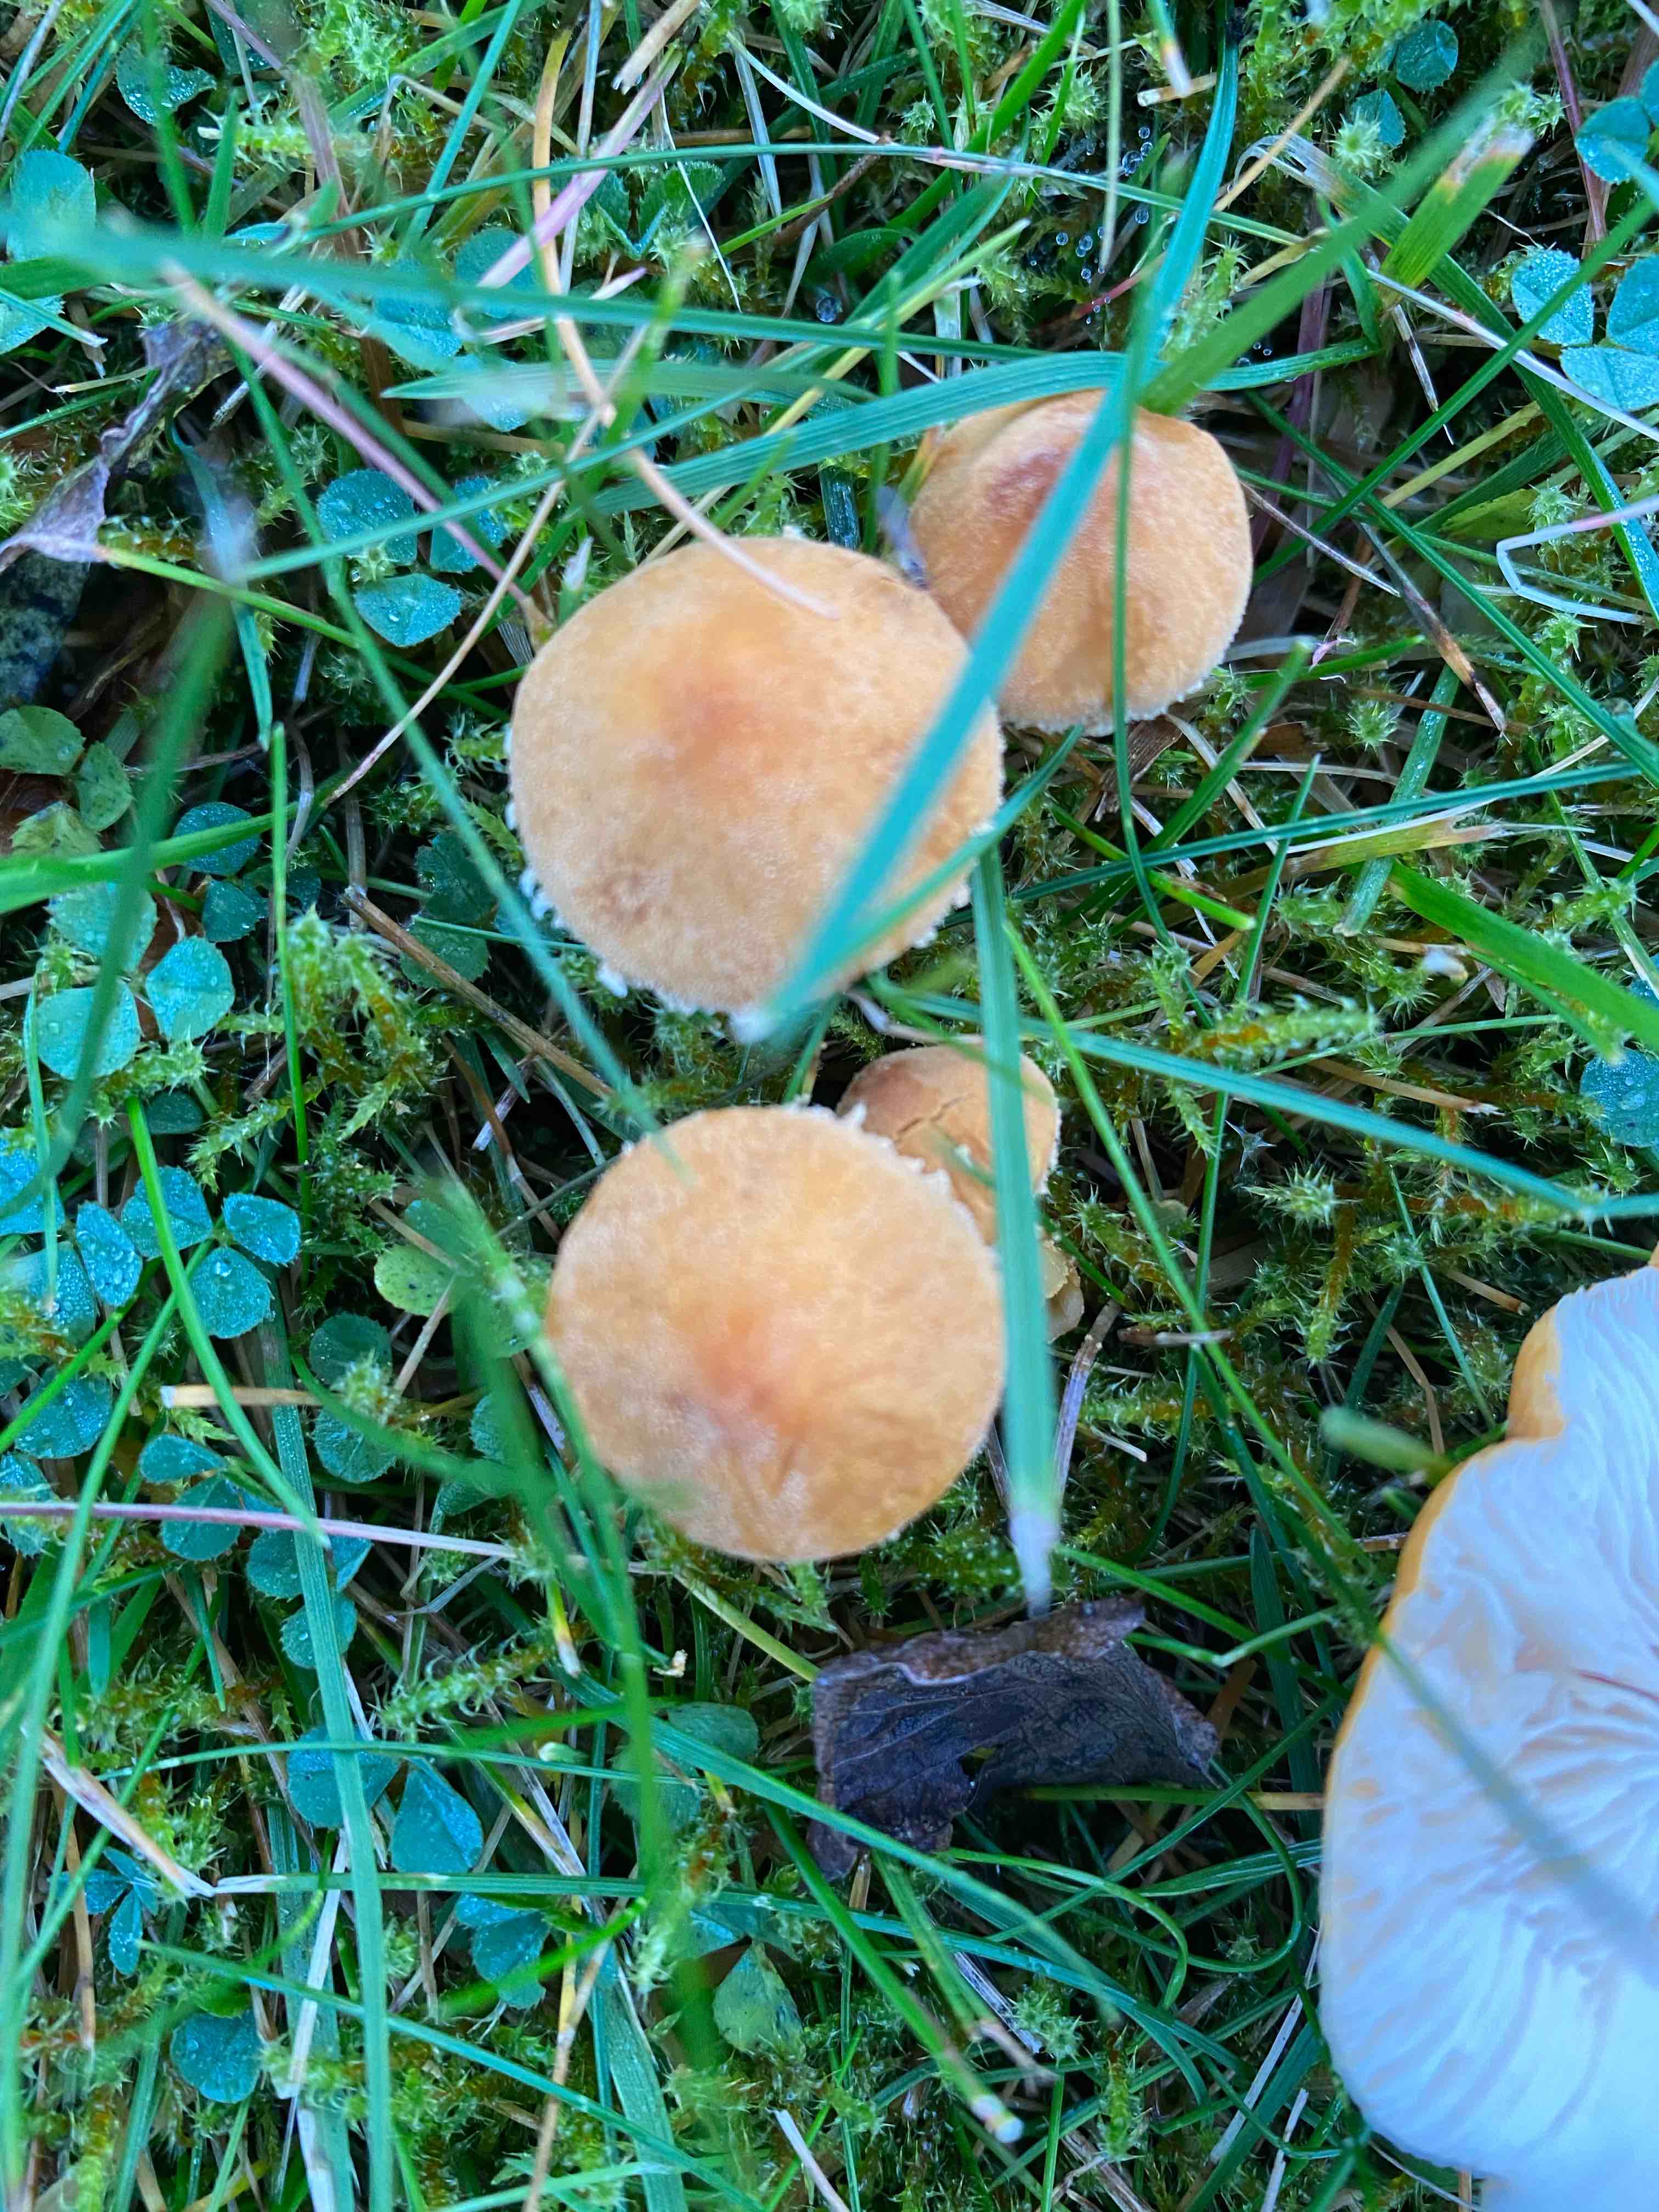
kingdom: Fungi
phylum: Basidiomycota
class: Agaricomycetes
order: Agaricales
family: Tricholomataceae
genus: Cystoderma
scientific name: Cystoderma amianthinum
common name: okkergul grynhat
